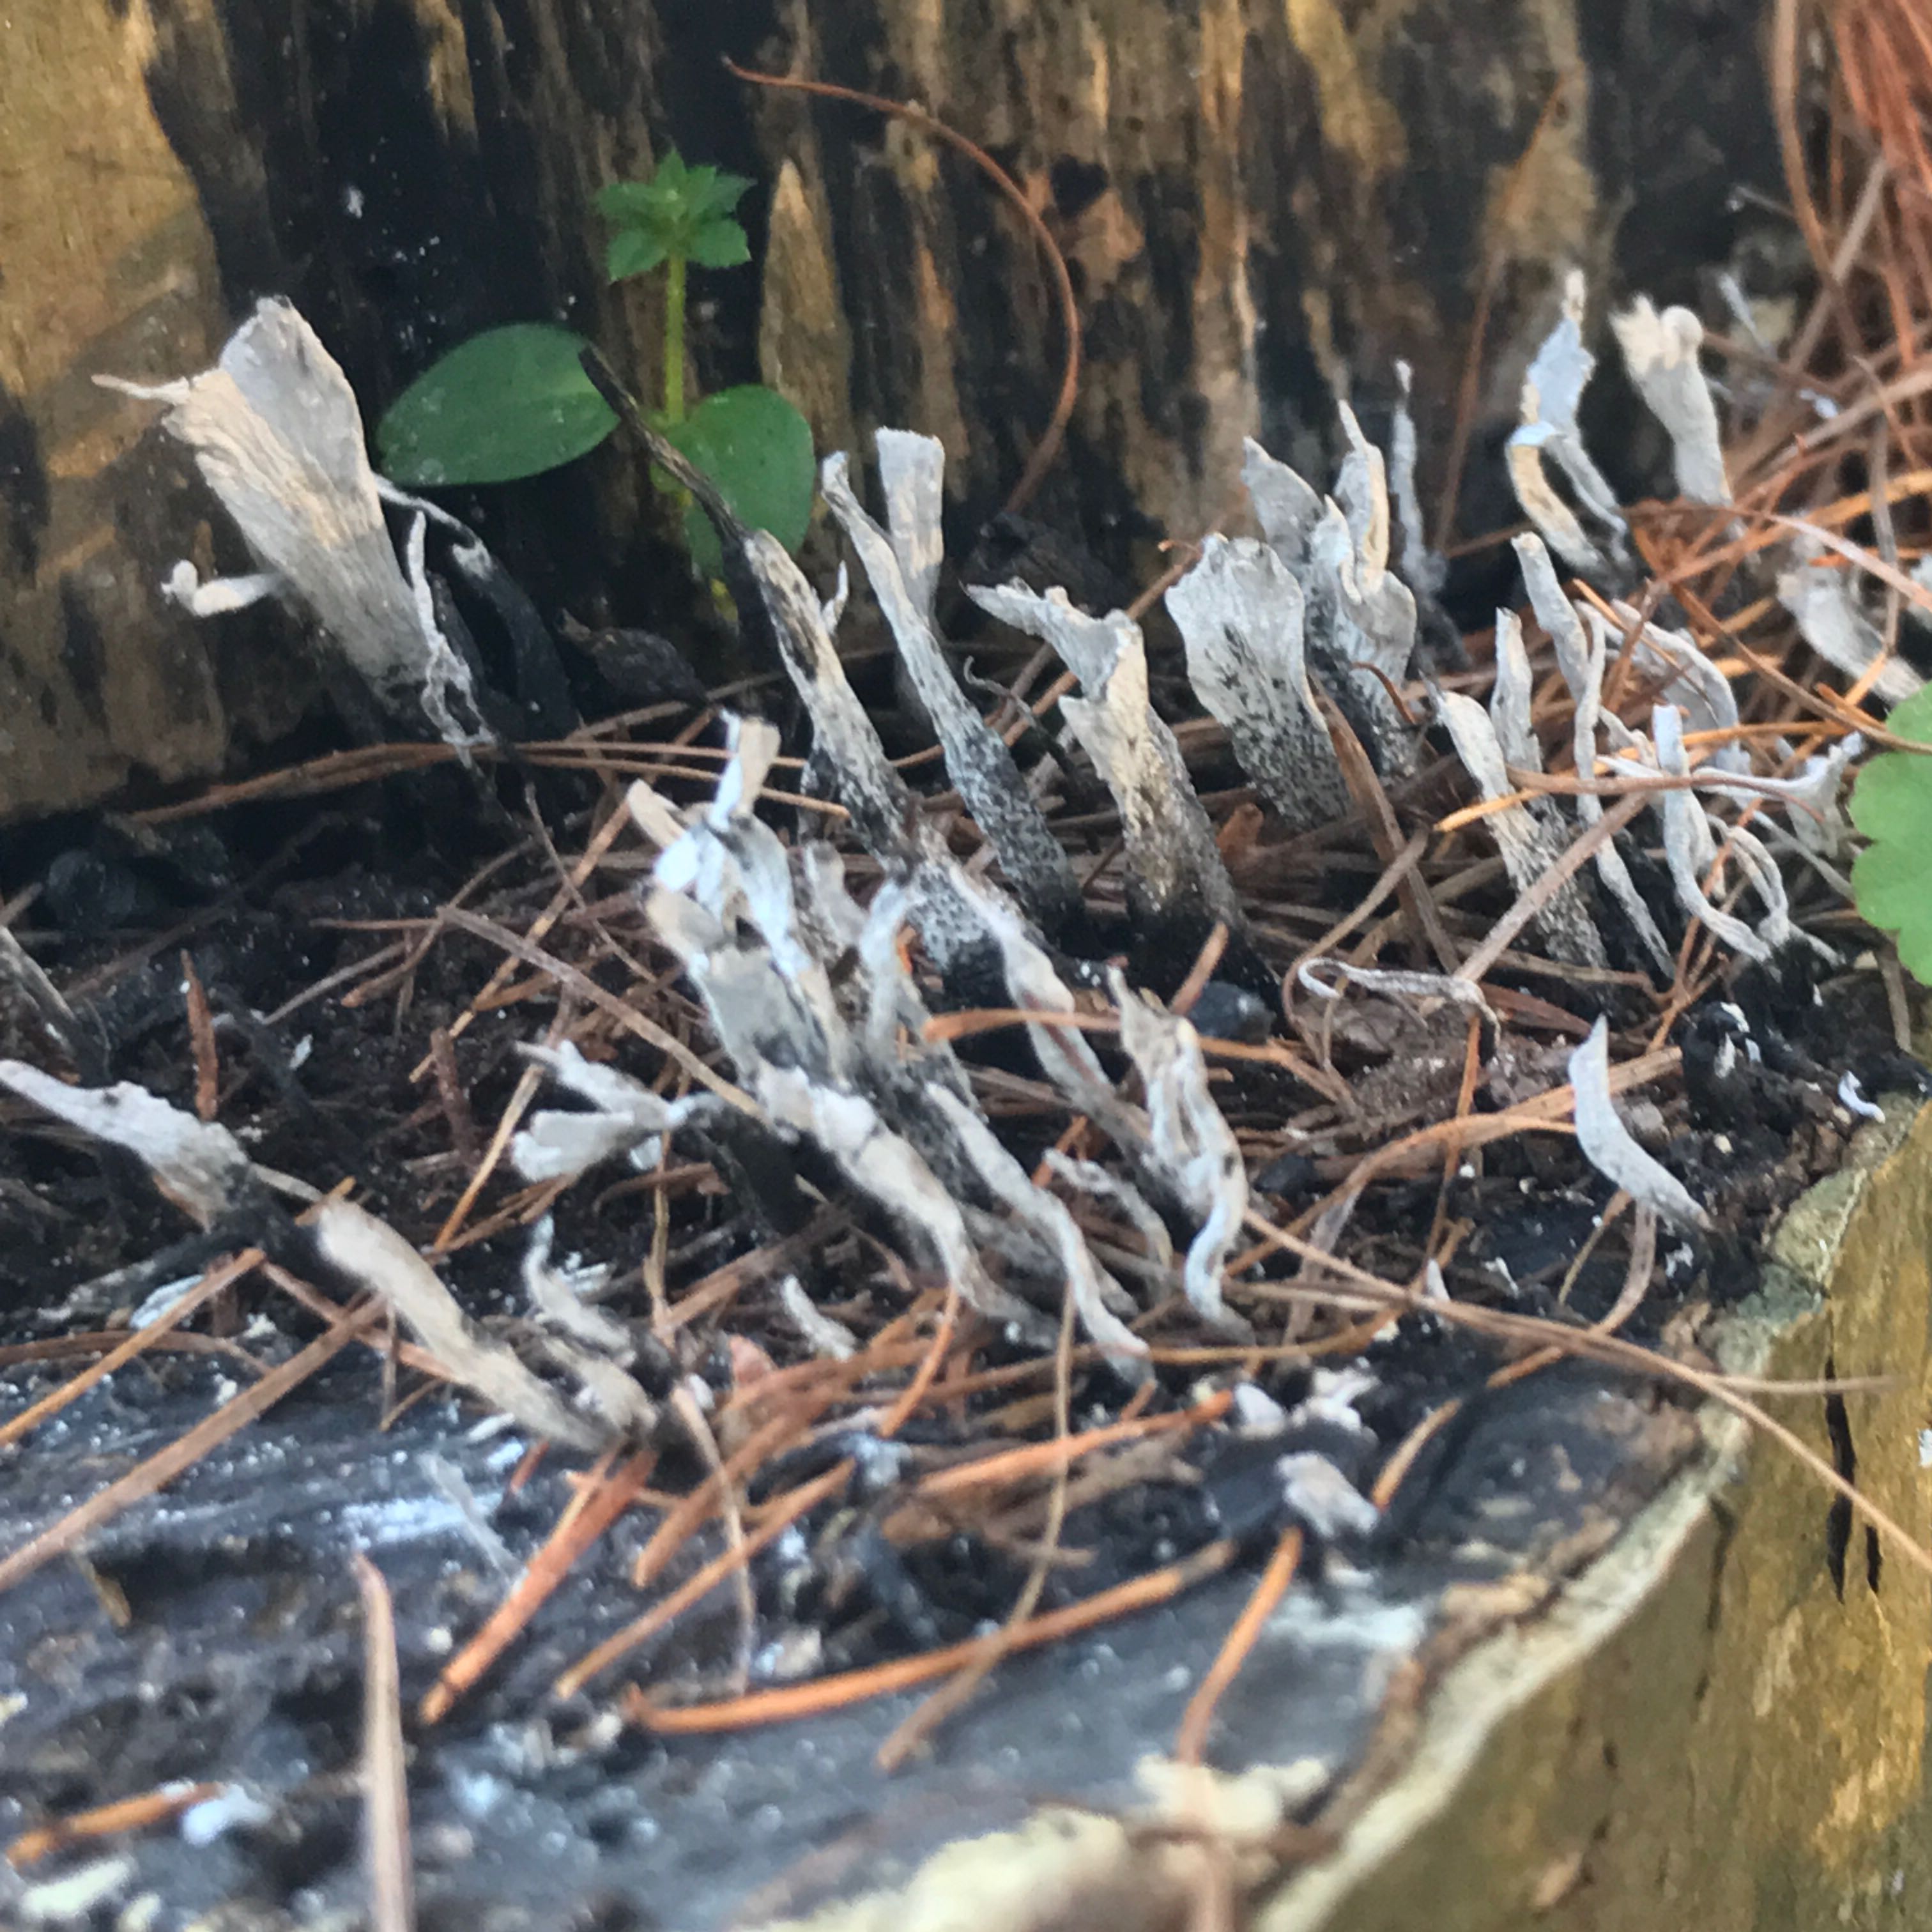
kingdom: Fungi
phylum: Ascomycota
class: Sordariomycetes
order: Xylariales
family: Xylariaceae
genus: Xylaria
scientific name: Xylaria hypoxylon
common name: grenet stødsvamp
